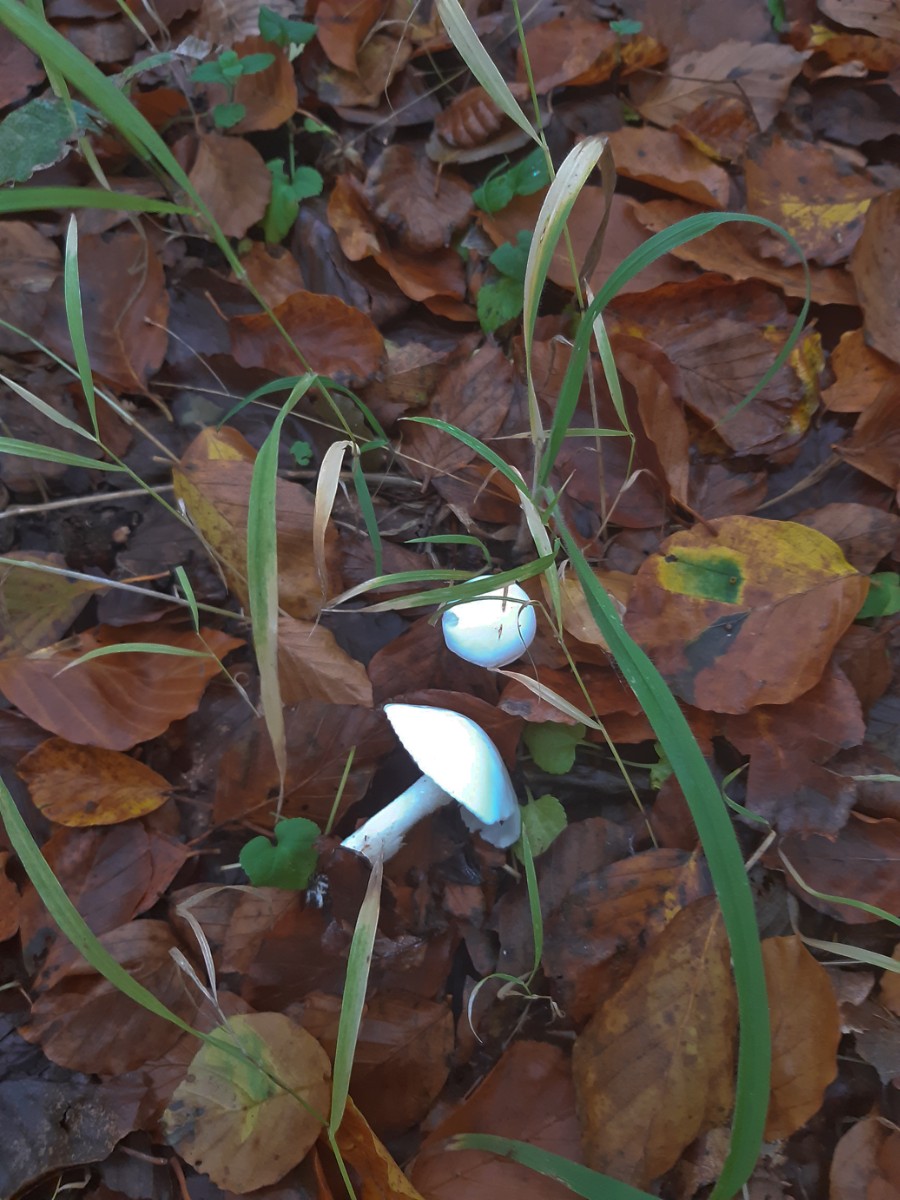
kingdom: Fungi
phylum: Basidiomycota
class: Agaricomycetes
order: Agaricales
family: Hygrophoraceae
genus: Hygrophorus
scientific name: Hygrophorus
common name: sneglehat
